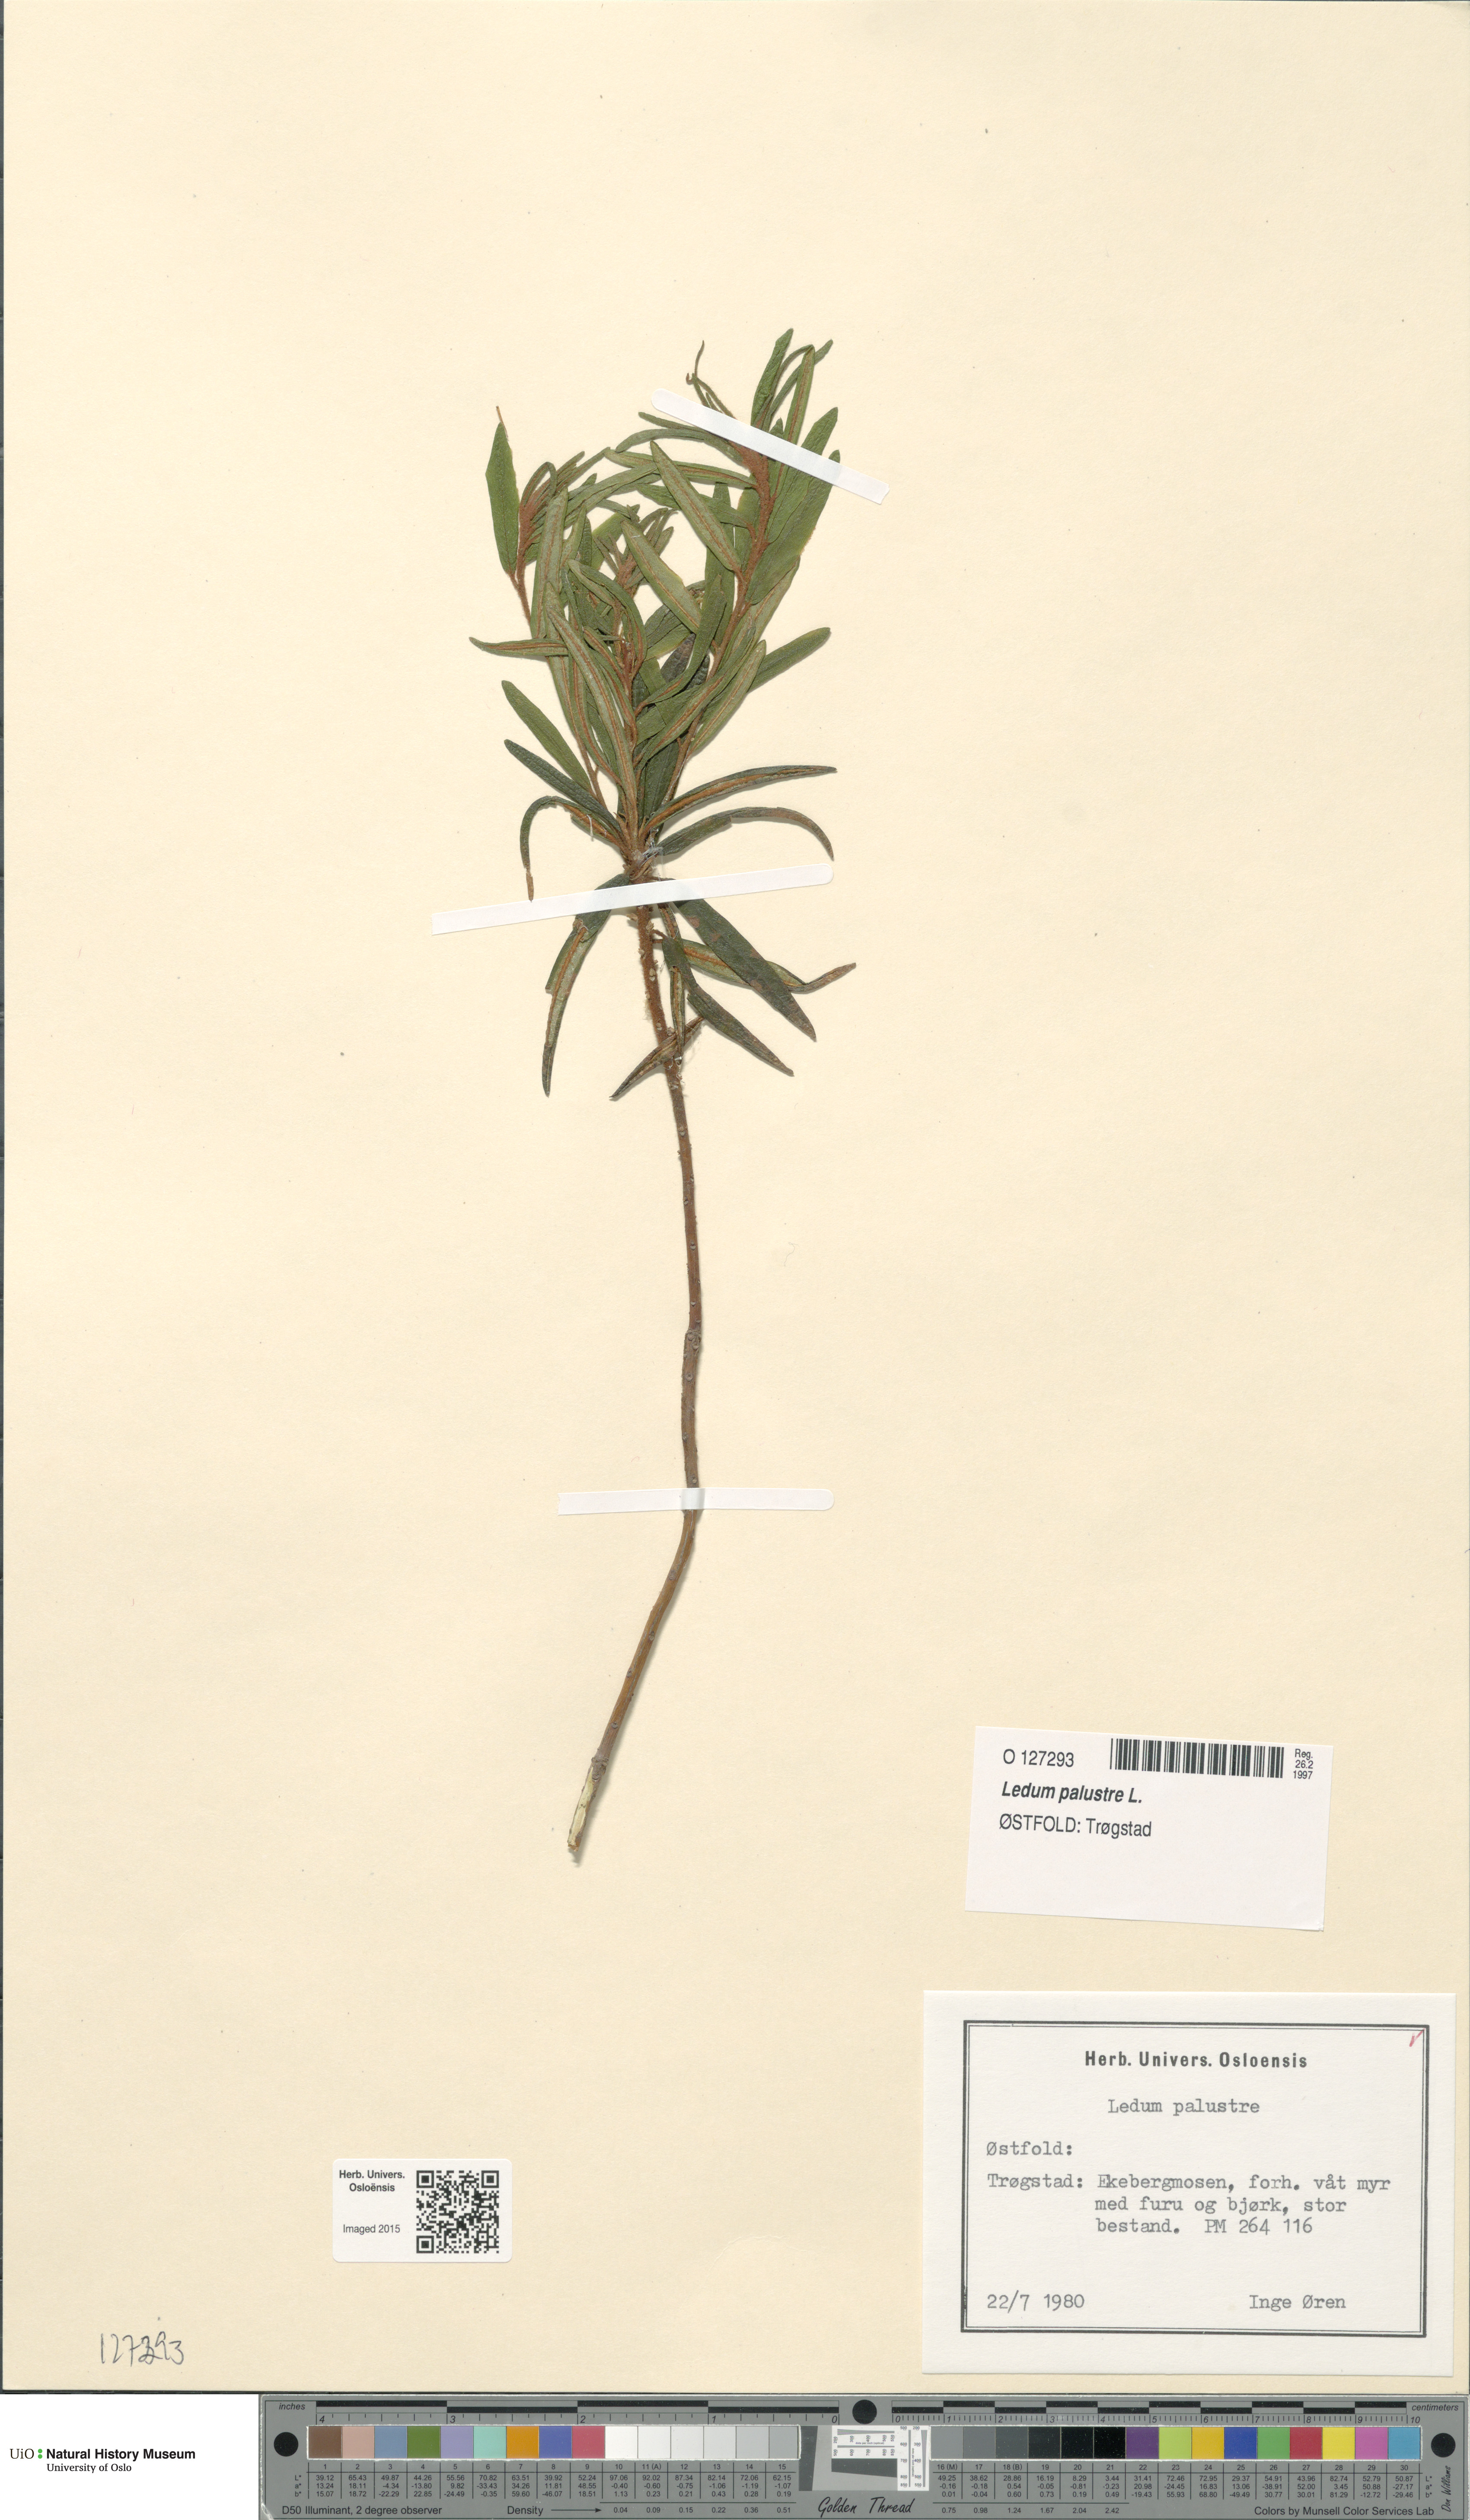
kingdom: Plantae
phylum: Tracheophyta
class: Magnoliopsida
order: Ericales
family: Ericaceae
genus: Rhododendron
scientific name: Rhododendron tomentosum
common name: Marsh labrador tea
